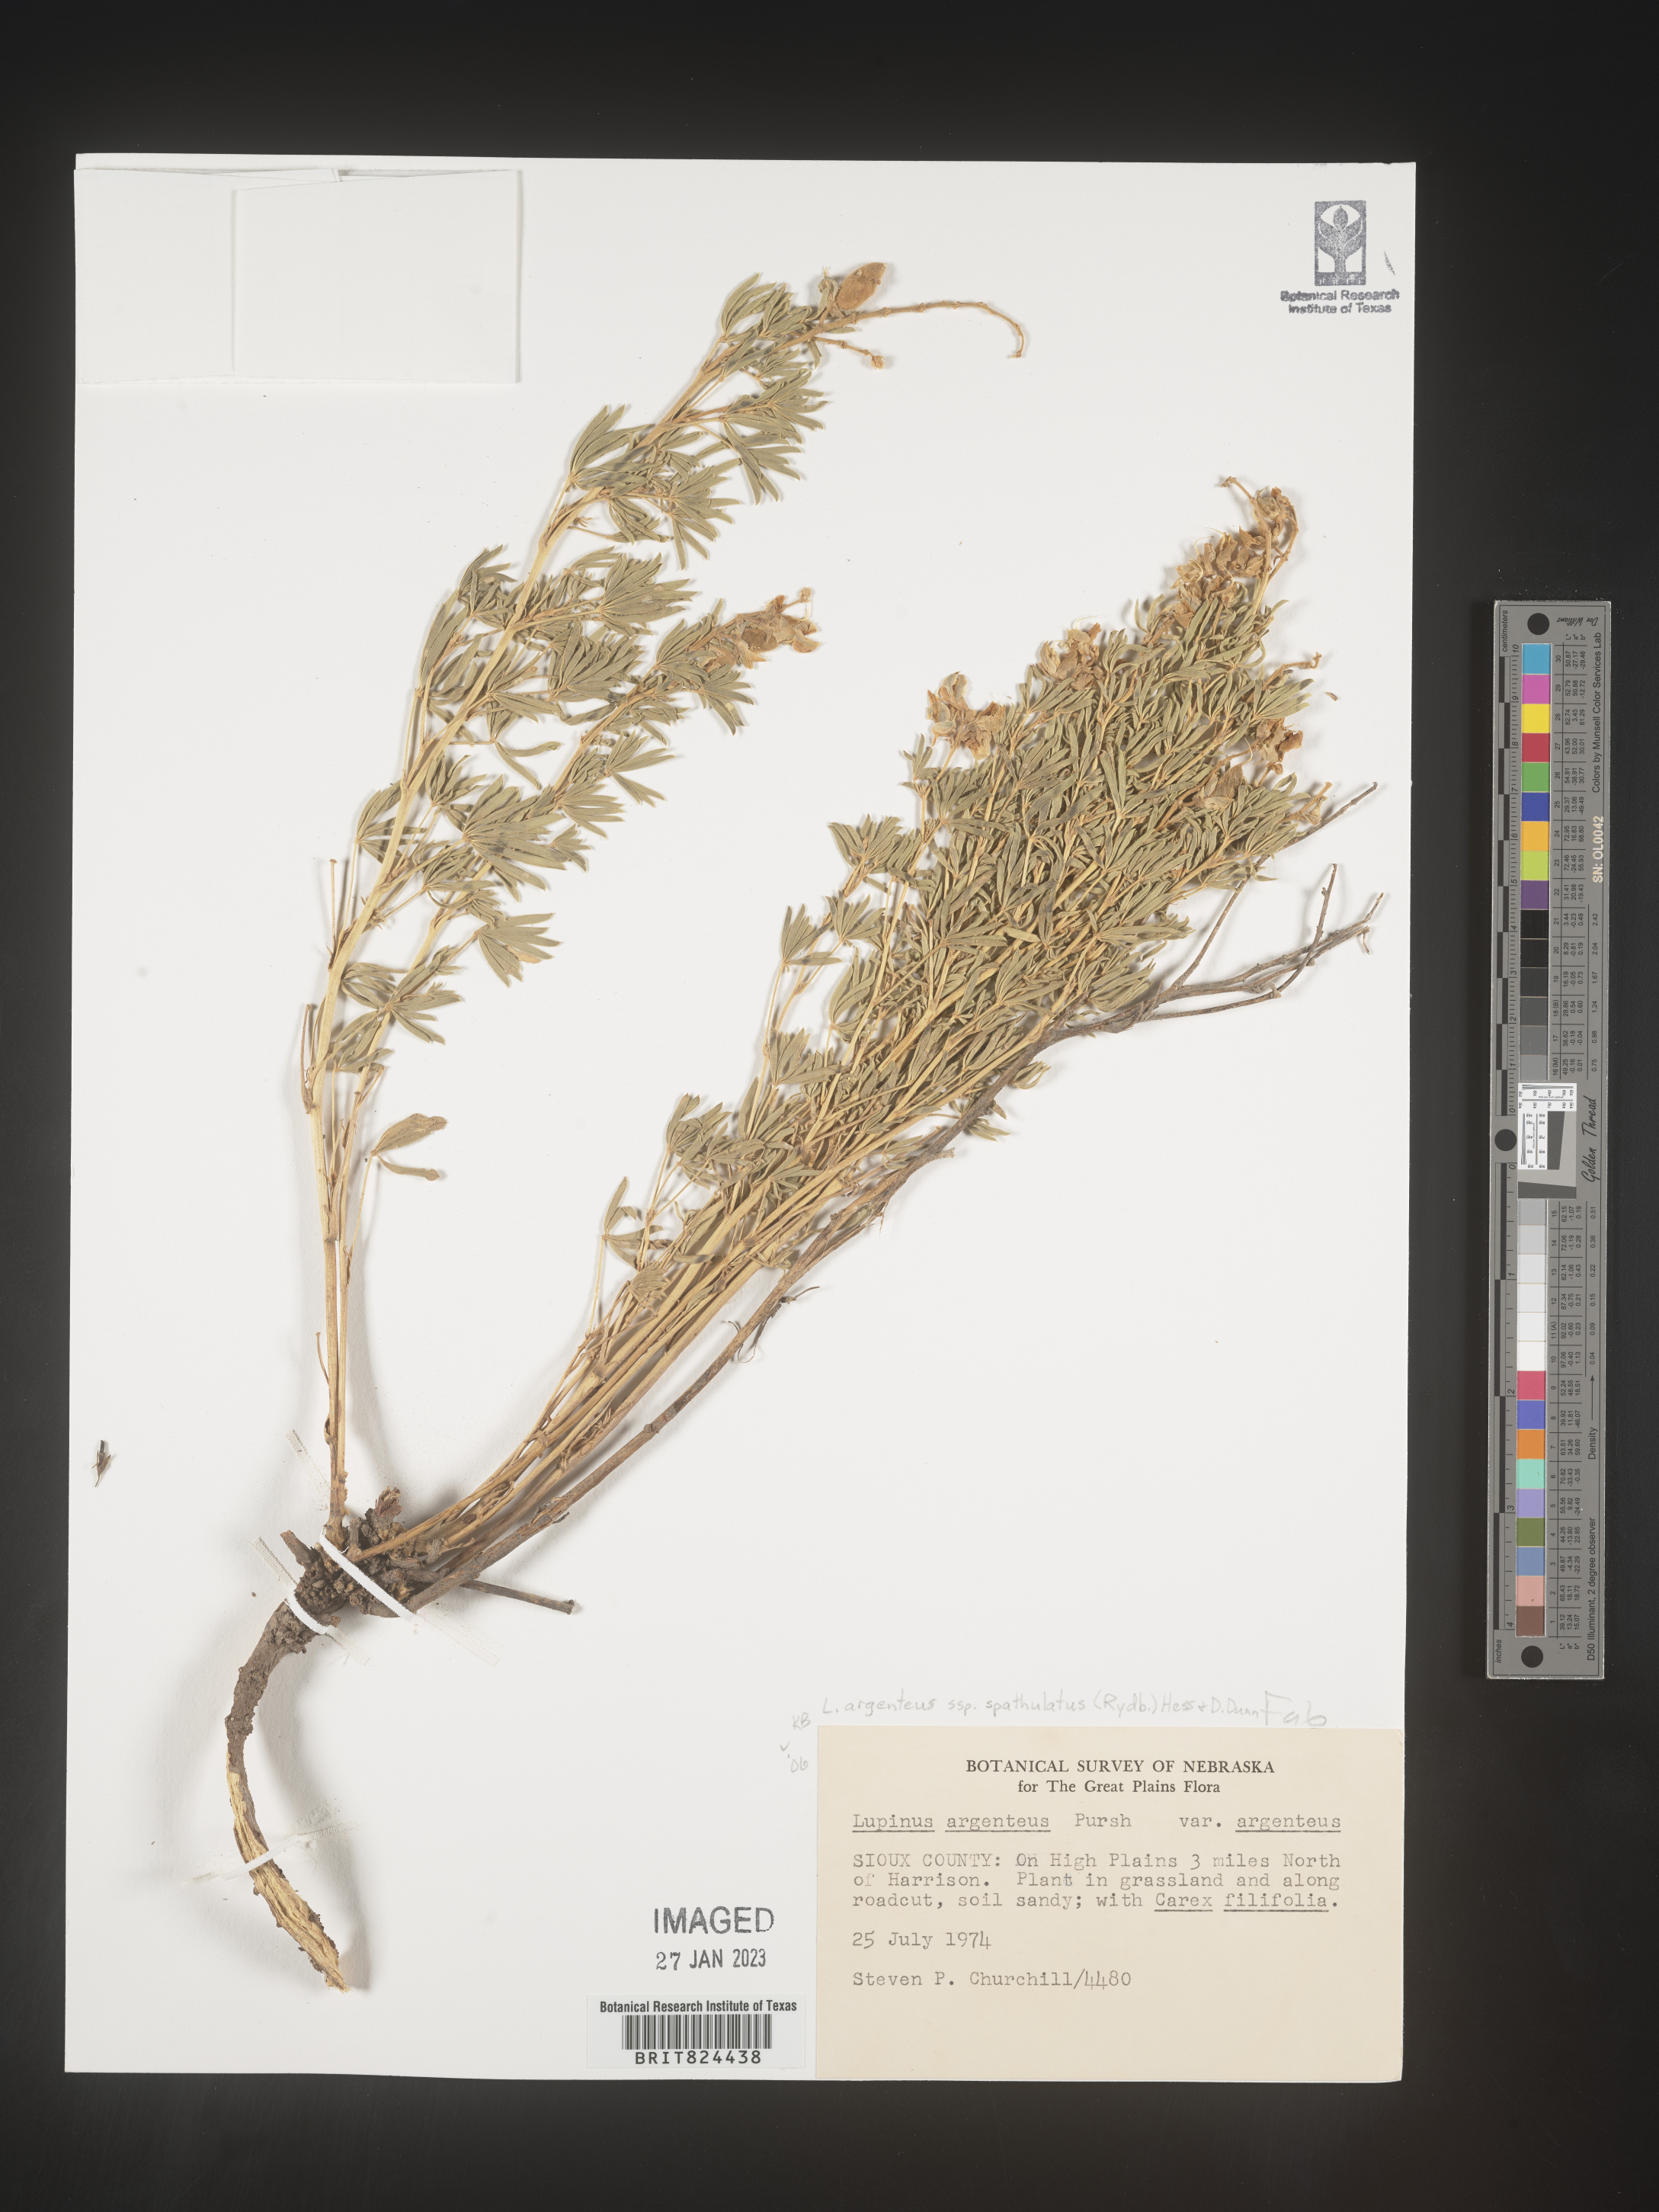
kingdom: Plantae
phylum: Tracheophyta
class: Magnoliopsida
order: Fabales
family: Fabaceae
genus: Lupinus
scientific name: Lupinus argenteus
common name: Silvery lupine
